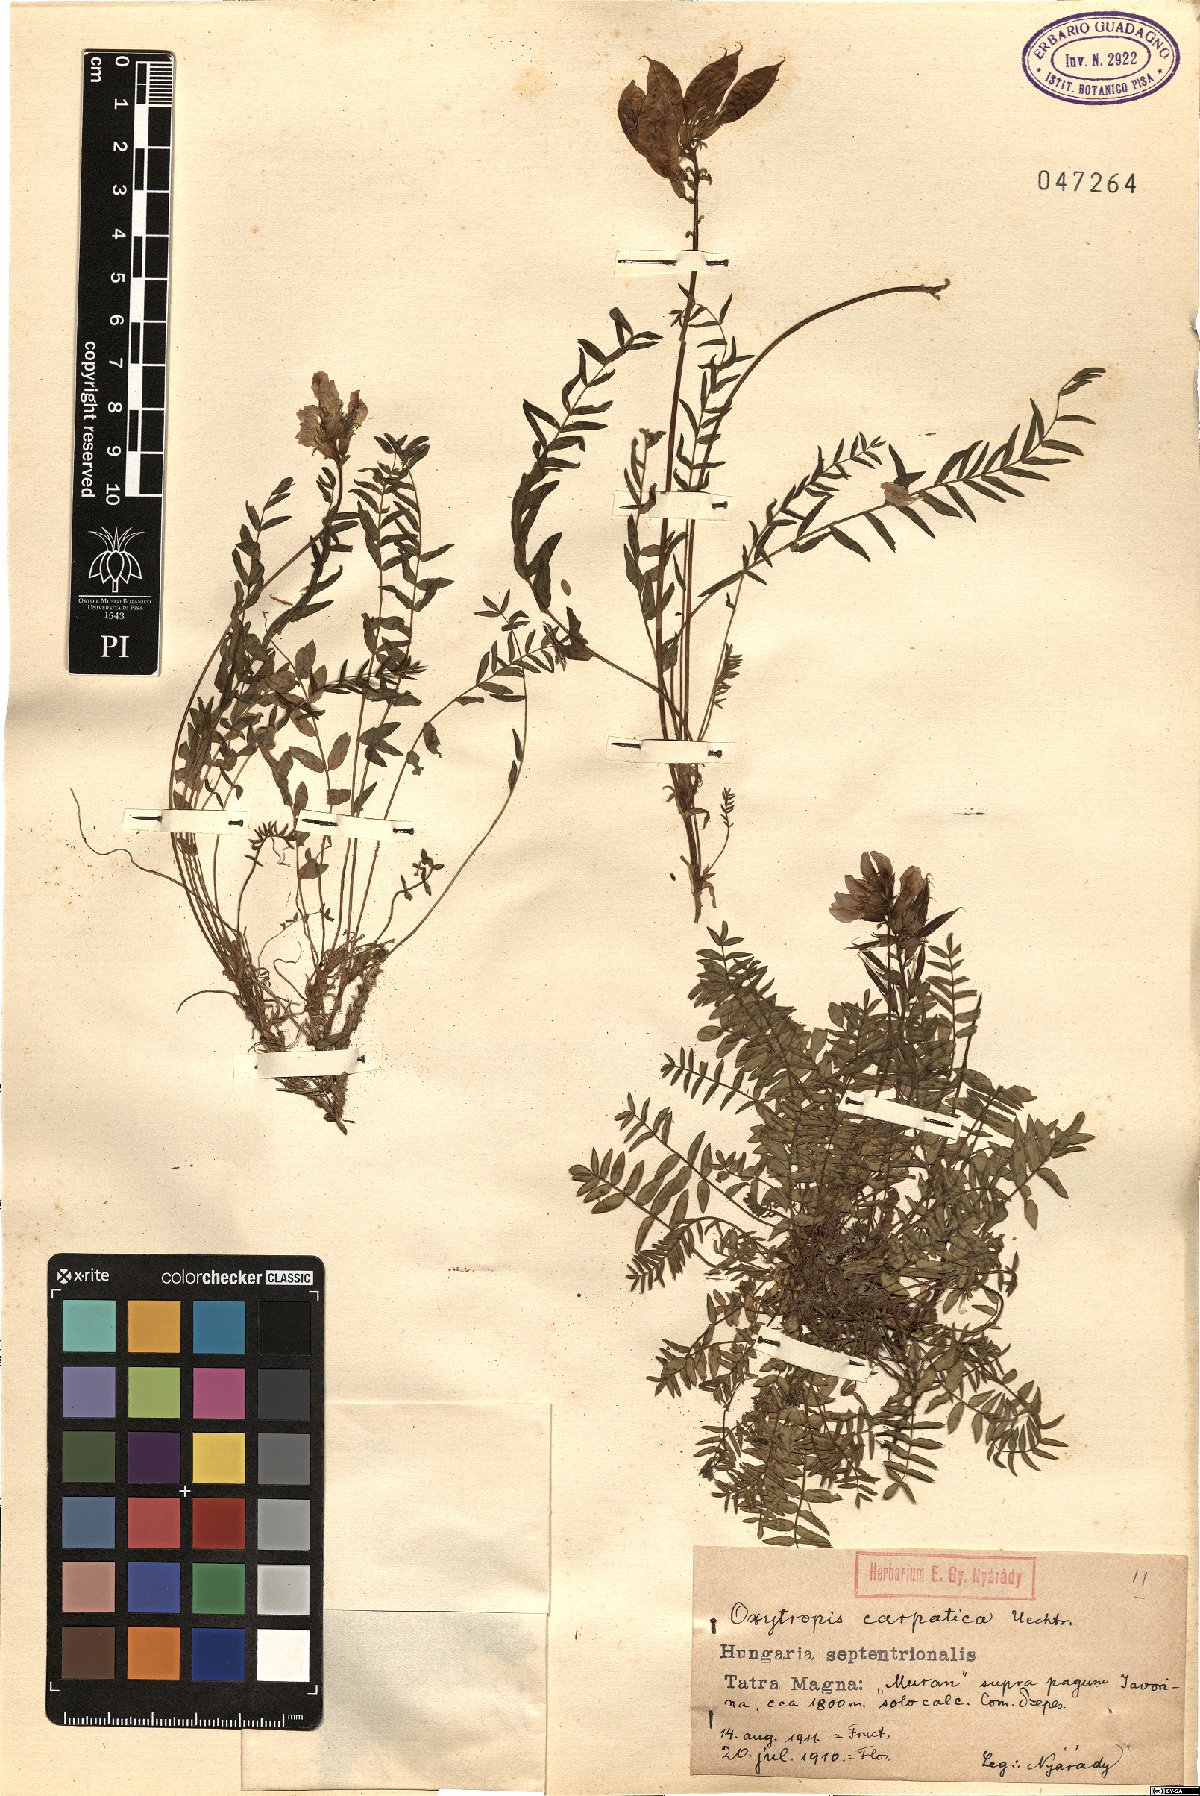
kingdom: Plantae
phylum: Tracheophyta
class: Magnoliopsida
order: Fabales
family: Fabaceae
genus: Oxytropis
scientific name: Oxytropis carpatica
